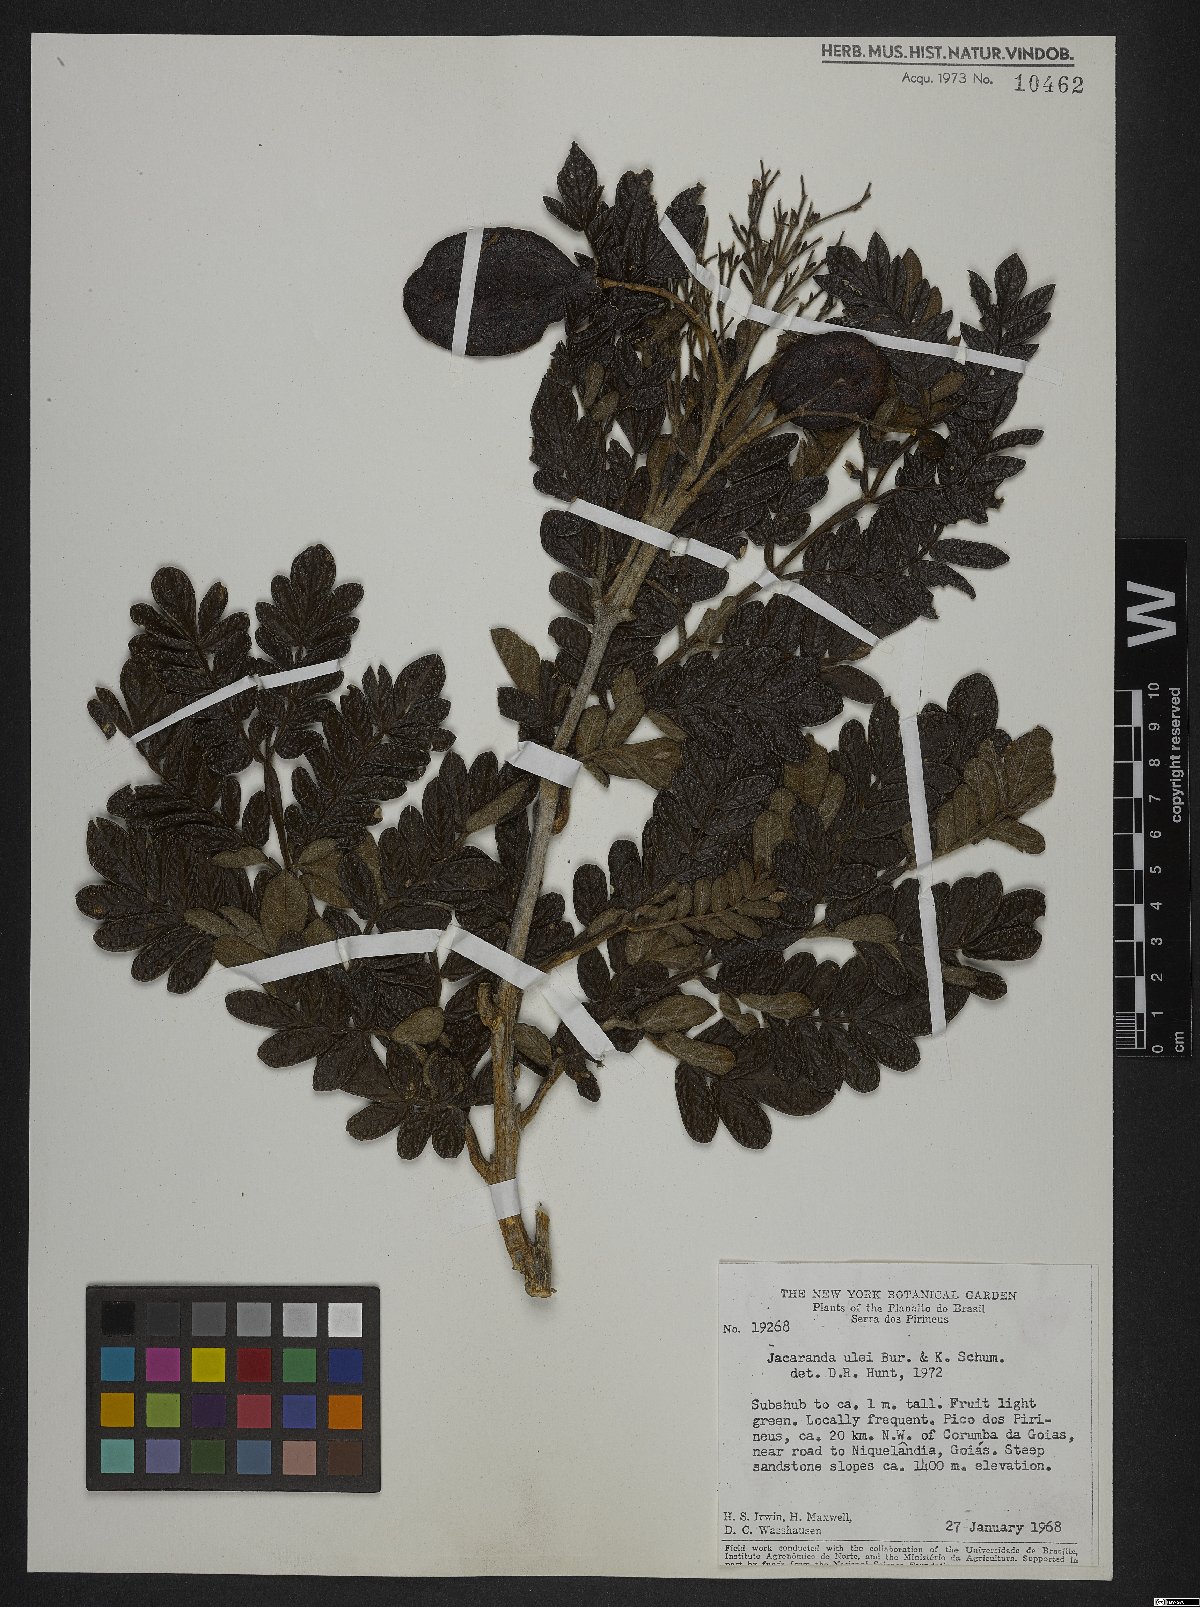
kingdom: Plantae
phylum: Tracheophyta
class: Magnoliopsida
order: Lamiales
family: Bignoniaceae
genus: Jacaranda
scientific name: Jacaranda ulei
